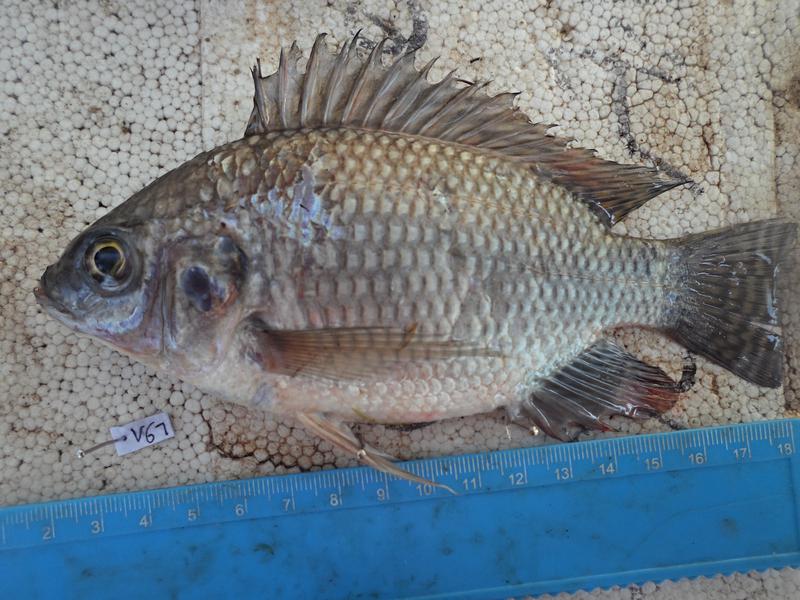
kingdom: Animalia
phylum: Chordata
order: Perciformes
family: Cichlidae
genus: Oreochromis
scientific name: Oreochromis niloticus
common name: Nile tilapia
